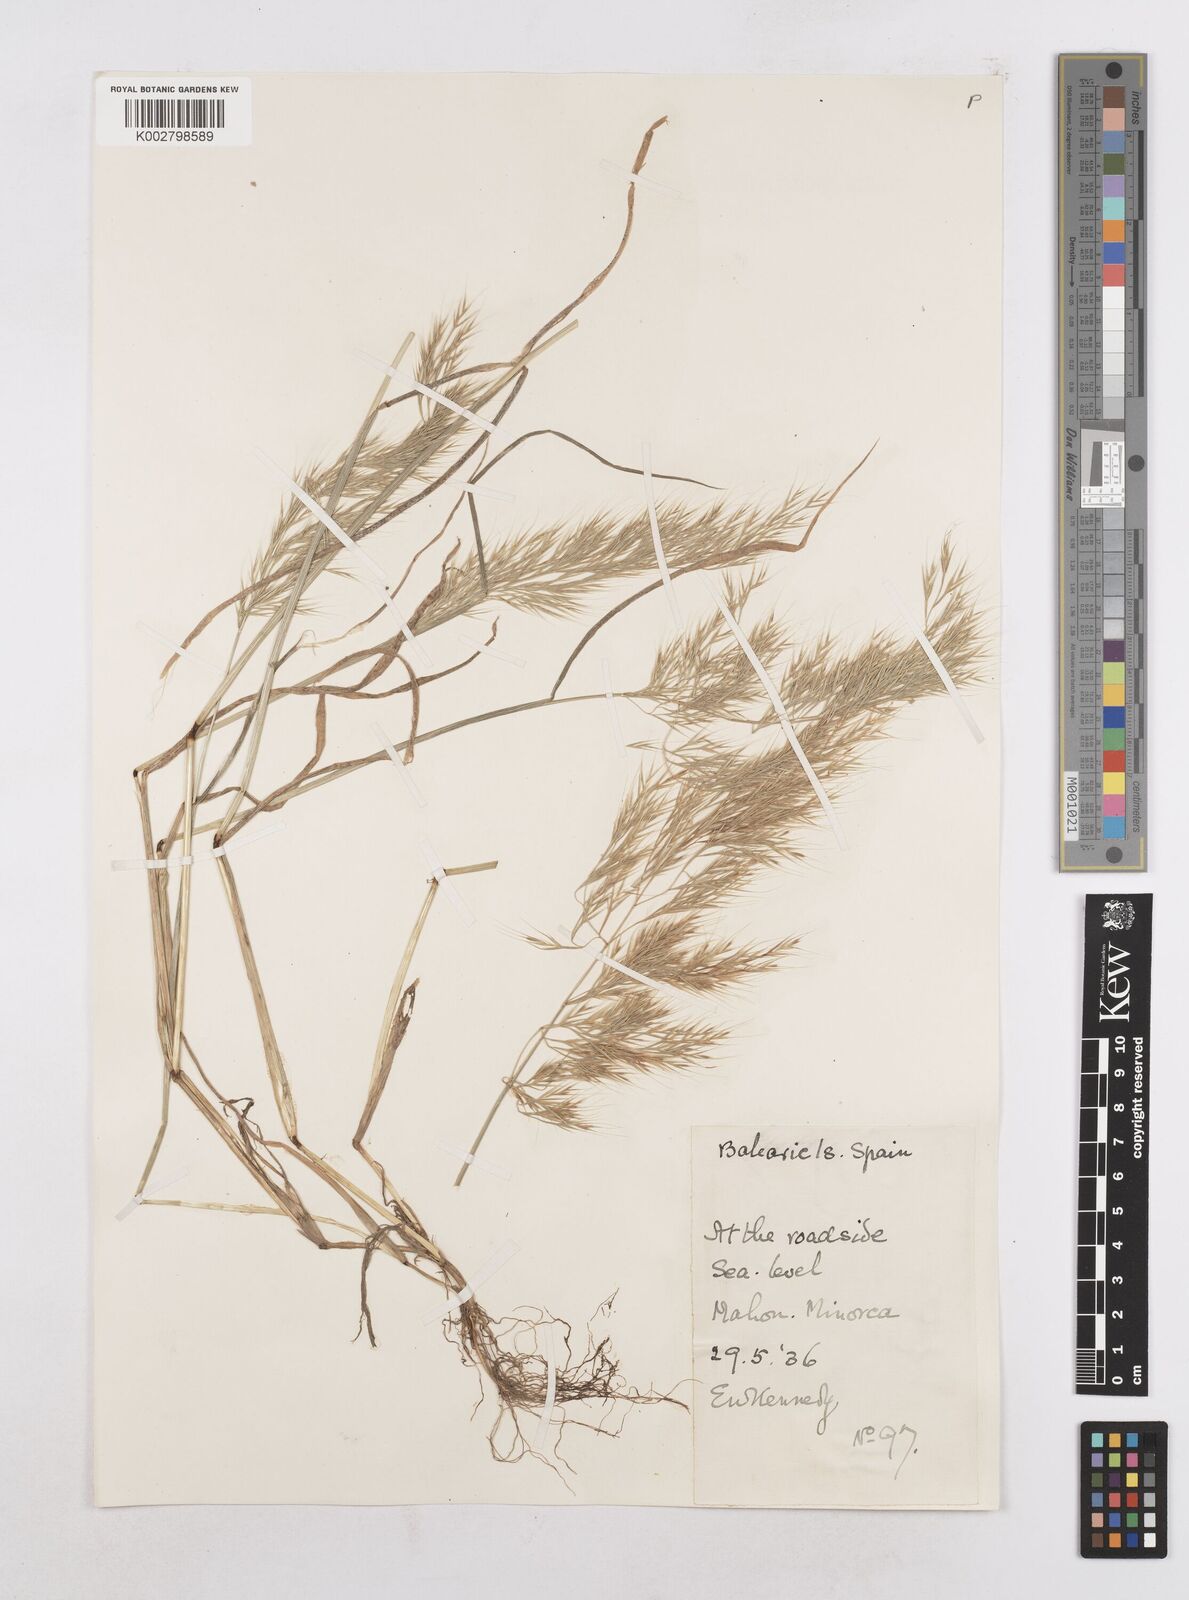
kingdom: Plantae
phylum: Tracheophyta
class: Liliopsida
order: Poales
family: Poaceae
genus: Festuca
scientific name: Festuca geniculata
